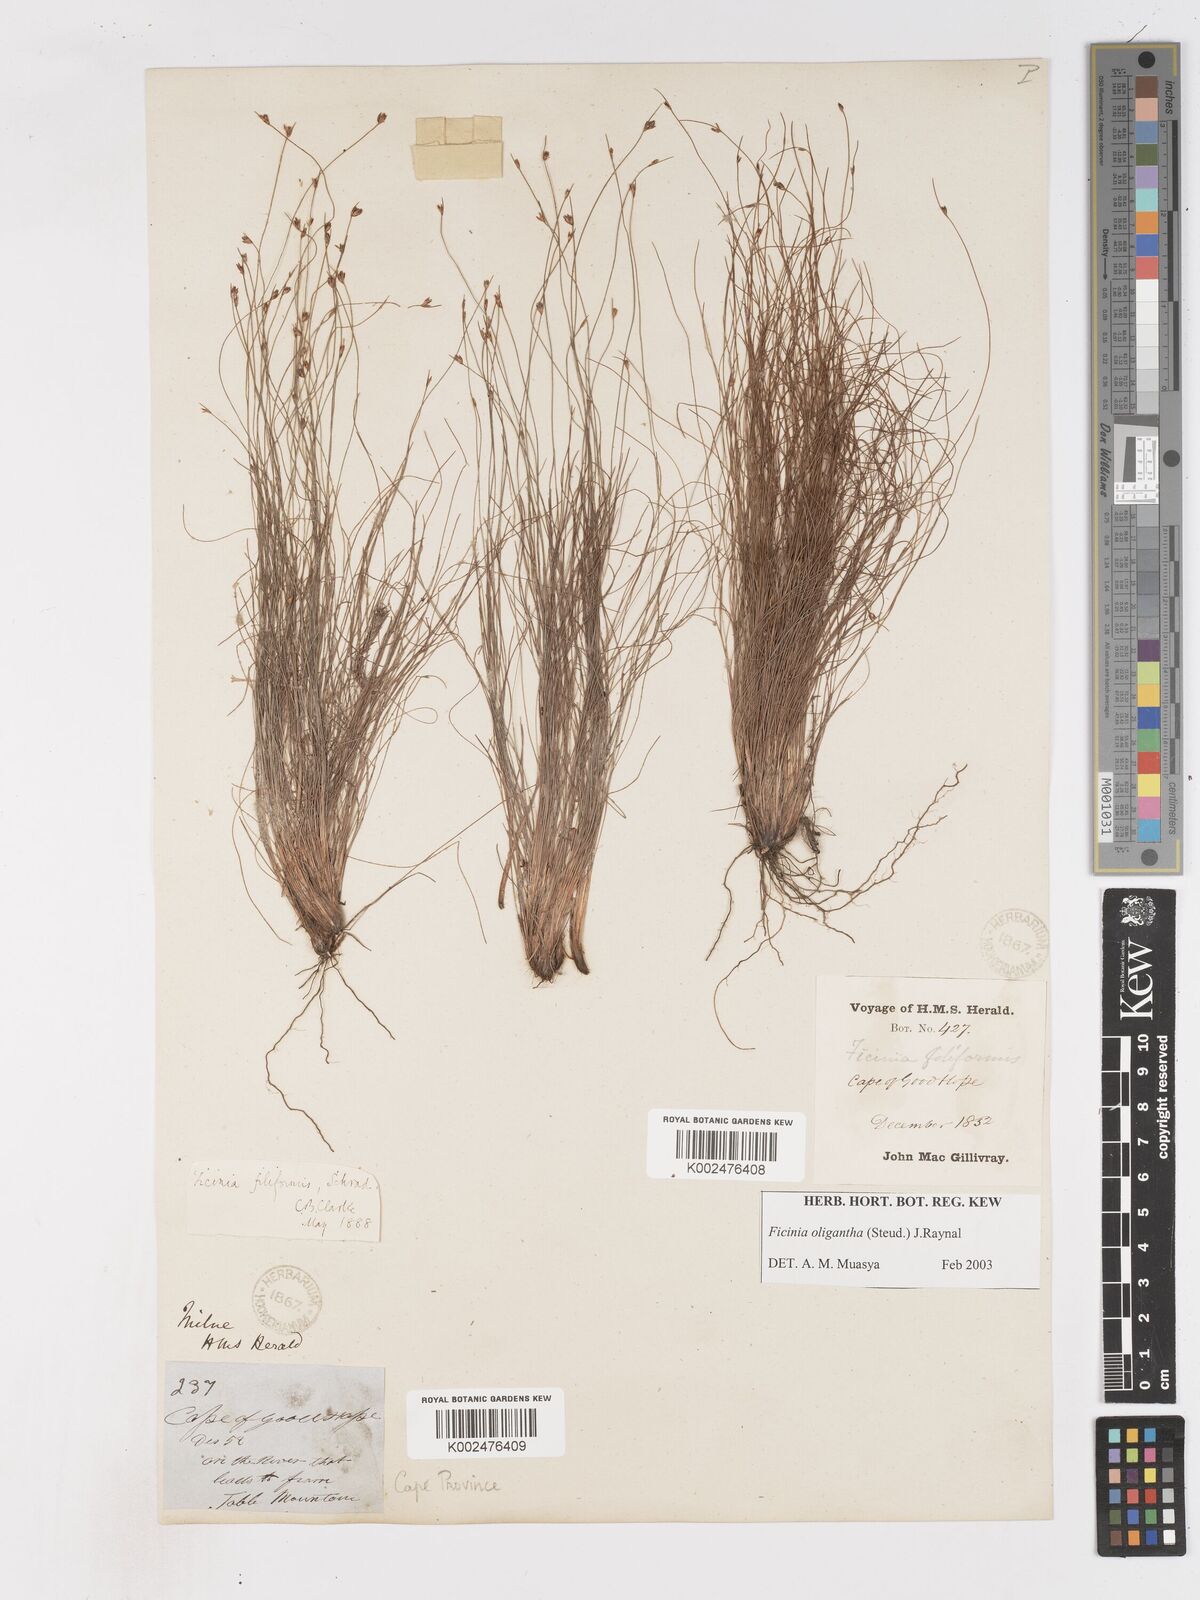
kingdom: Plantae
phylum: Tracheophyta
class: Liliopsida
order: Poales
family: Cyperaceae
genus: Ficinia
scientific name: Ficinia
